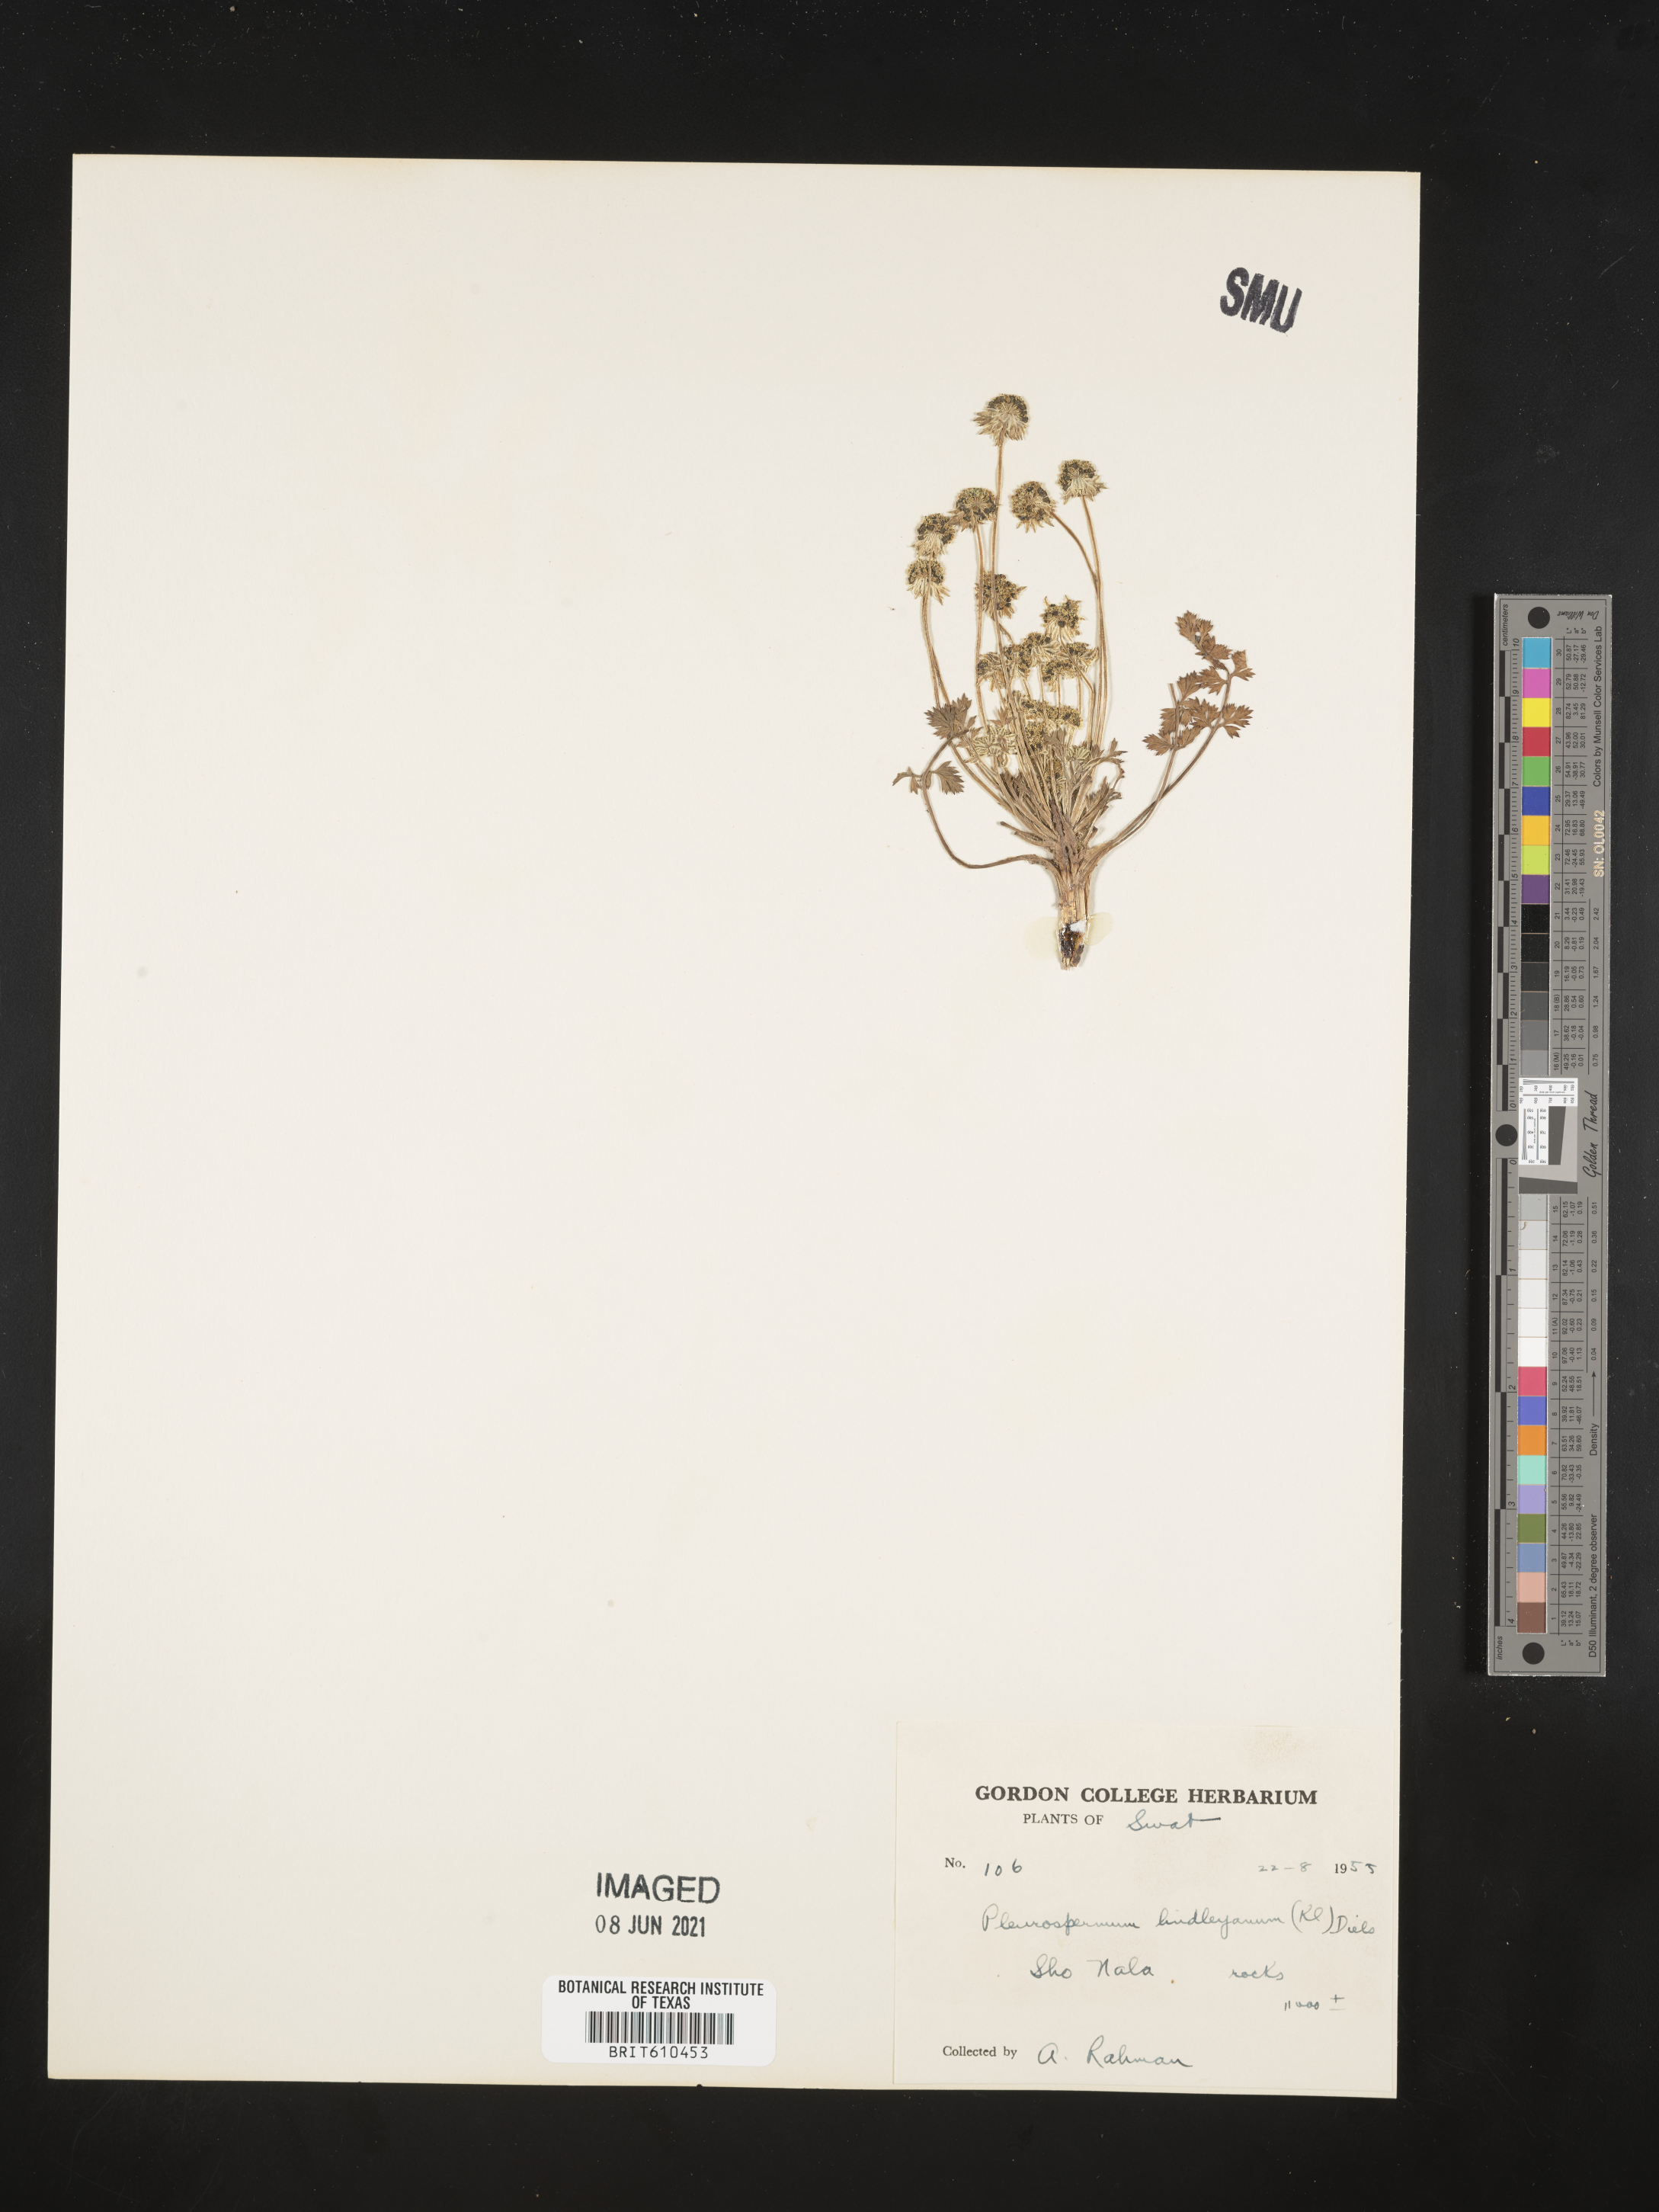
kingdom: Plantae
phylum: Tracheophyta
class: Magnoliopsida
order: Apiales
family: Apiaceae
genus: Hymenidium
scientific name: Hymenidium lindleyanum
